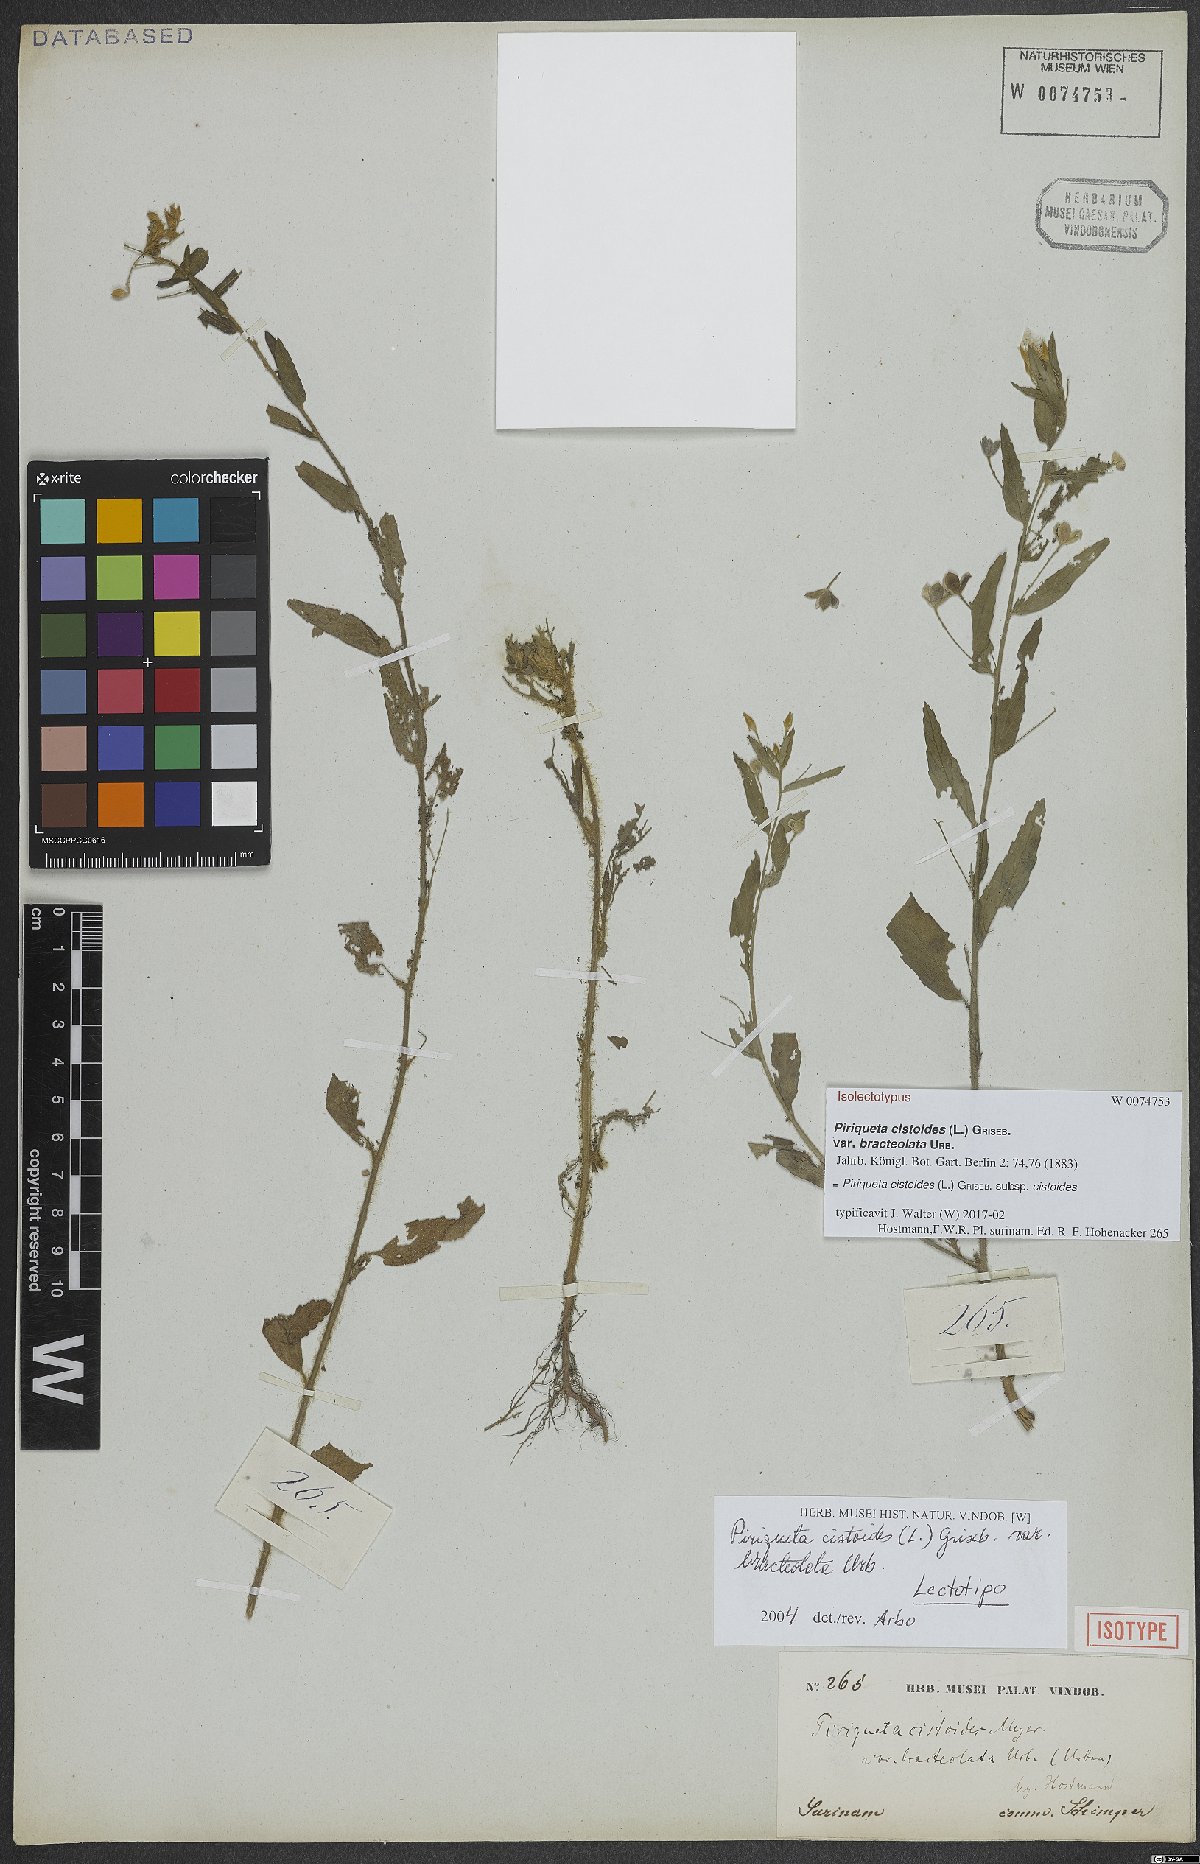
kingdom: Plantae
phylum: Tracheophyta
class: Magnoliopsida
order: Malpighiales
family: Turneraceae
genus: Piriqueta
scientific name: Piriqueta cistoides
